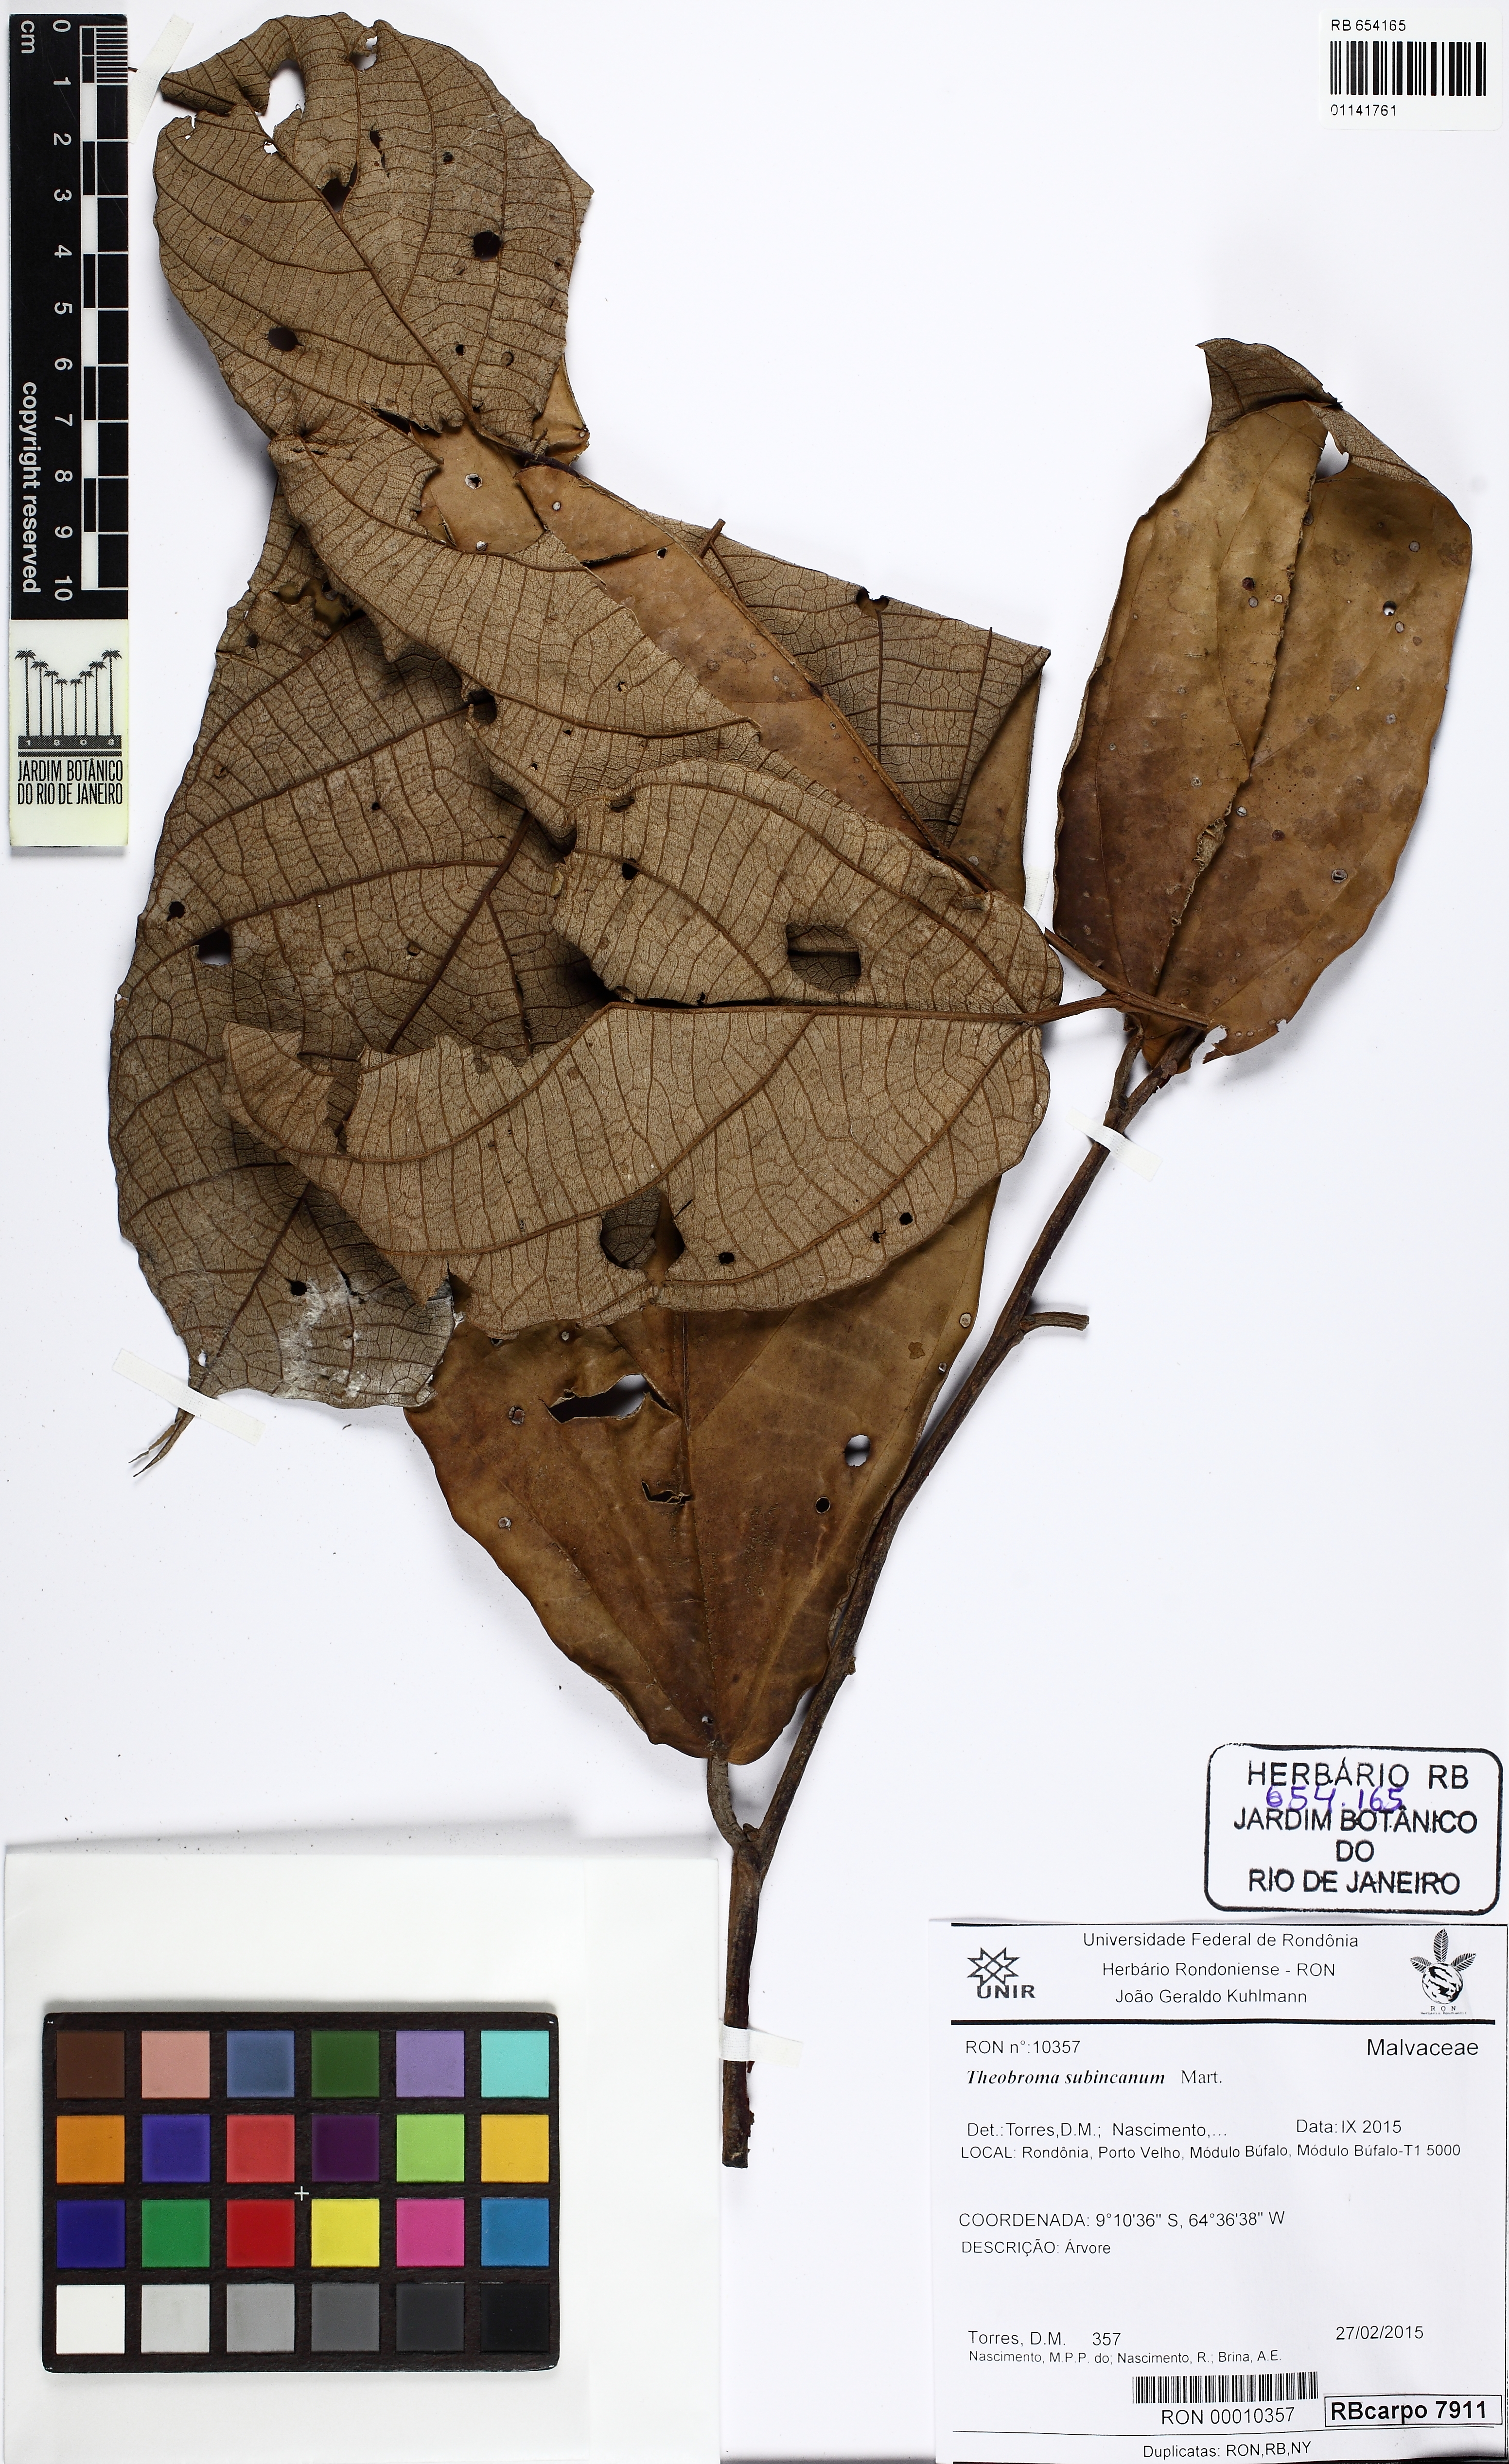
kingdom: Plantae
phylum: Tracheophyta
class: Magnoliopsida
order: Malvales
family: Malvaceae
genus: Theobroma
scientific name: Theobroma subincanum
